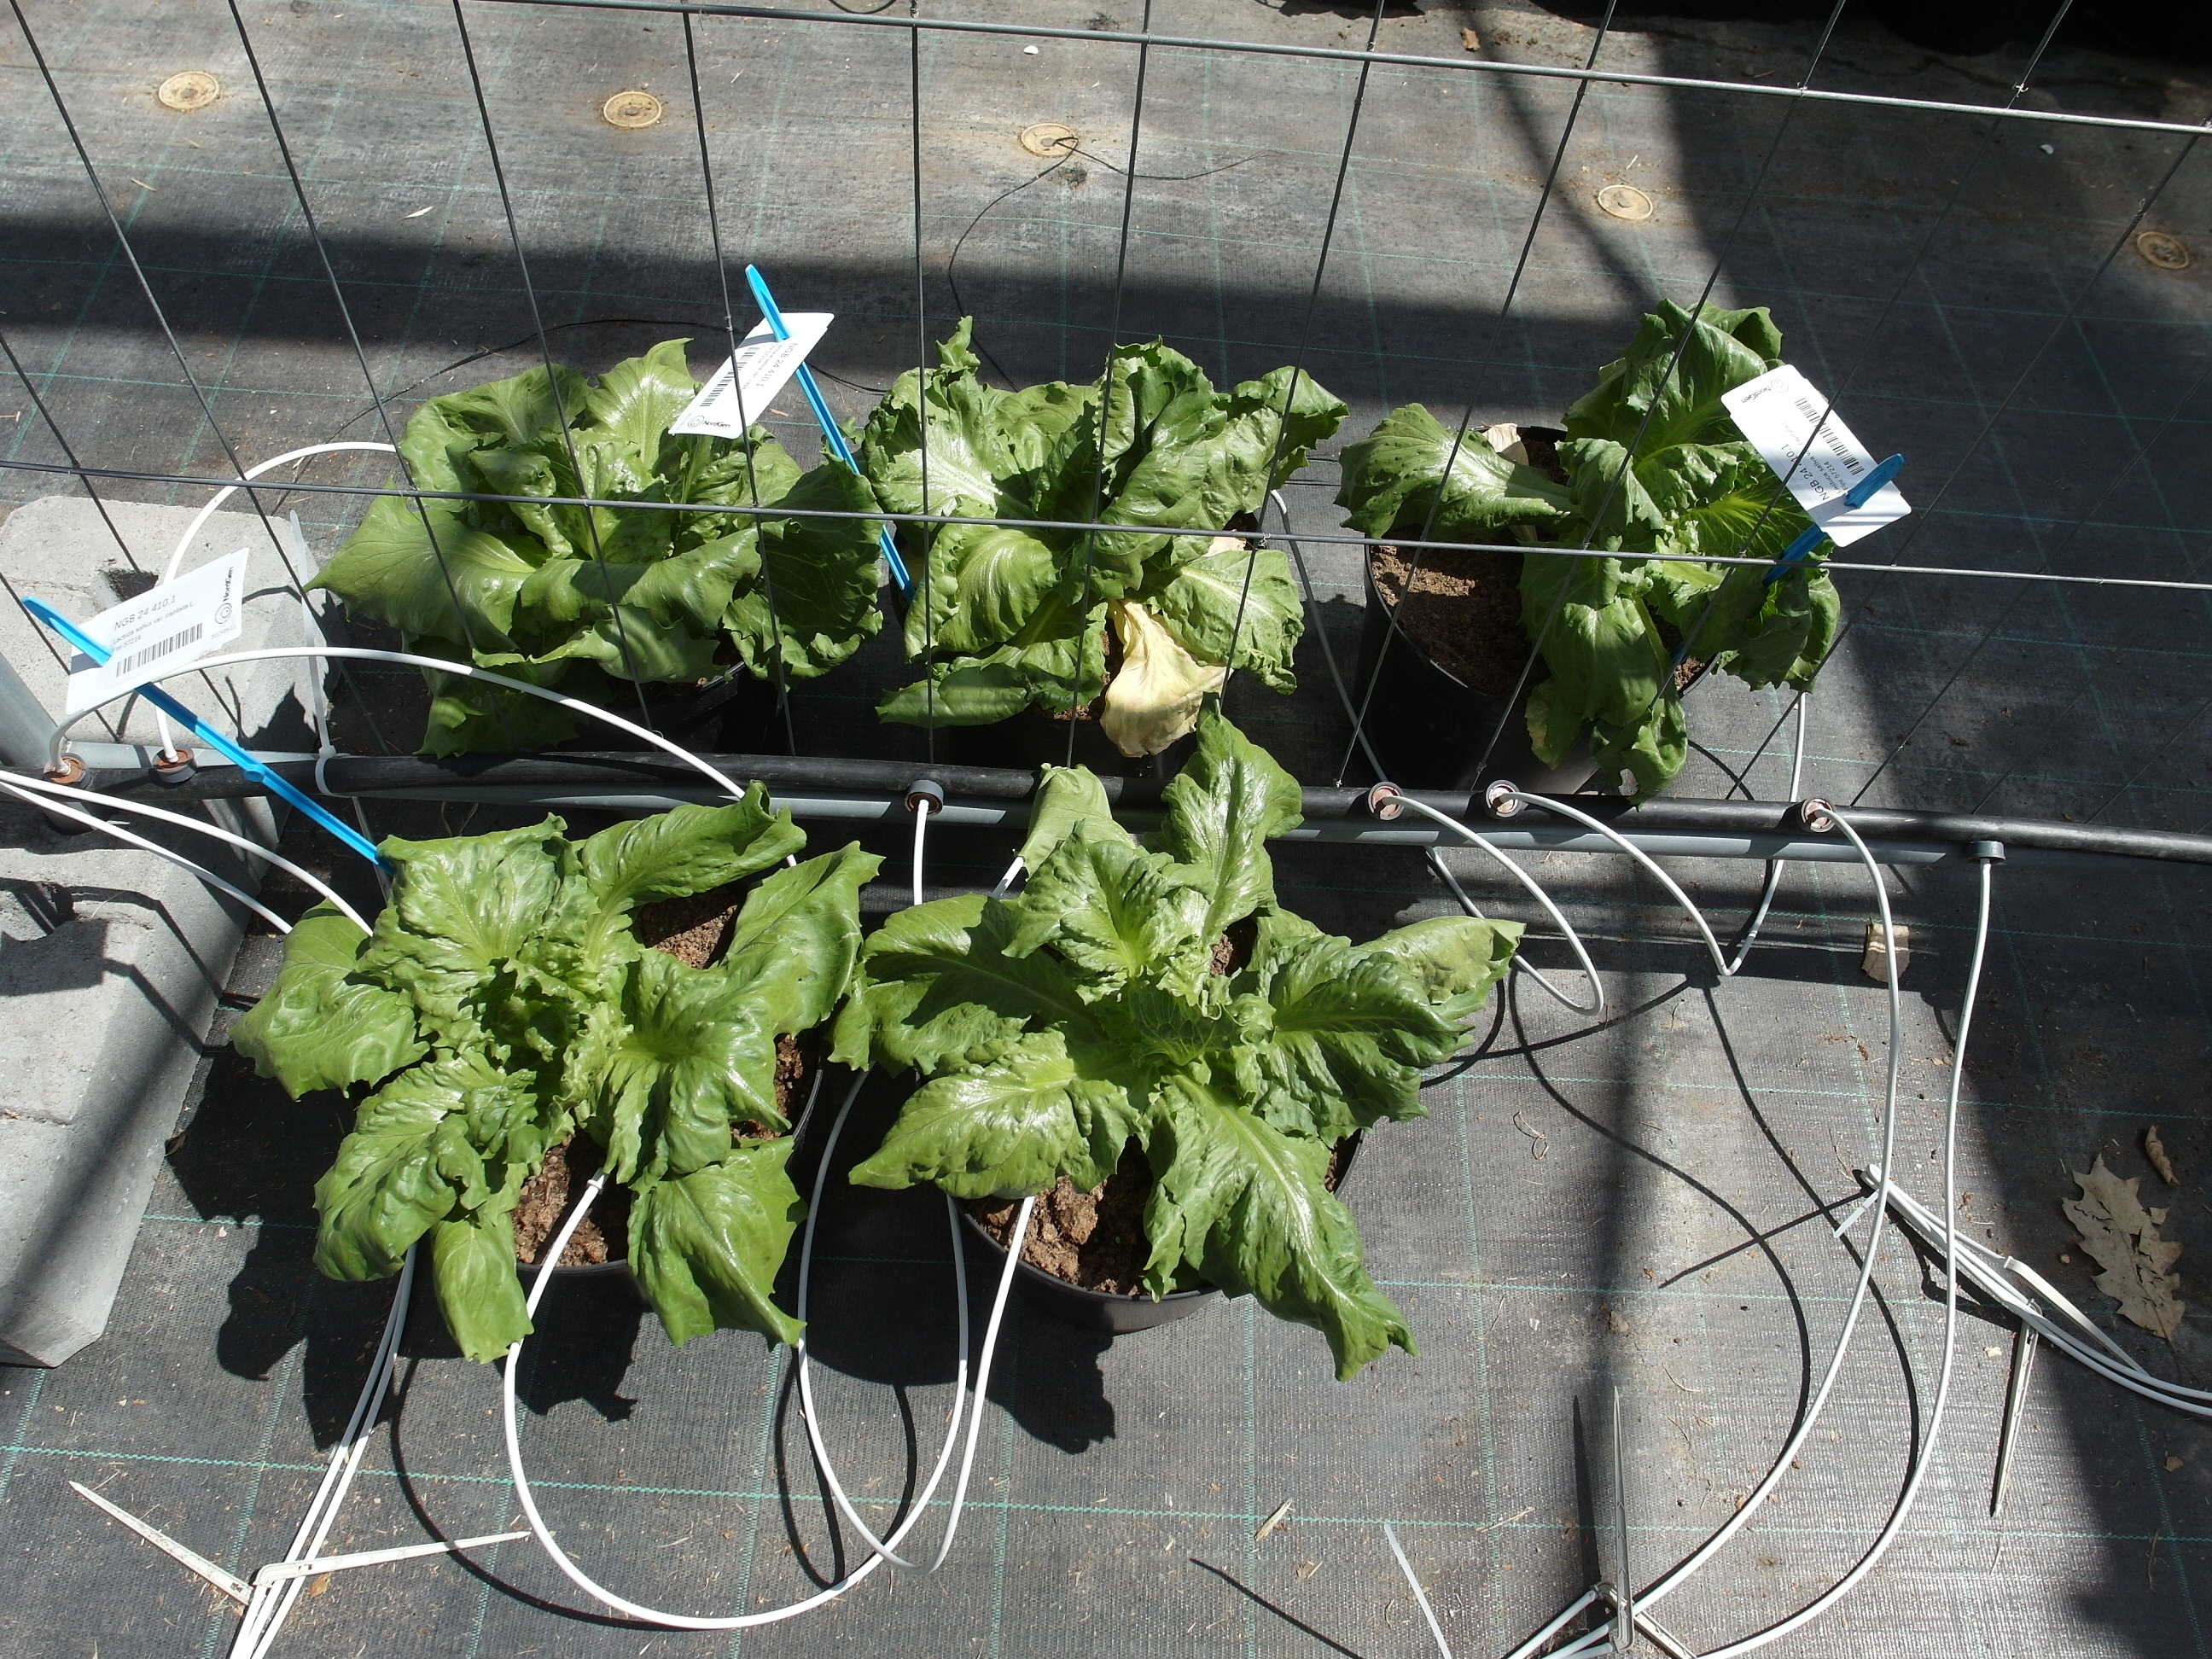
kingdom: Plantae
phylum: Tracheophyta
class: Magnoliopsida
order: Asterales
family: Asteraceae
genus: Lactuca
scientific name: Lactuca sativa
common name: Garden lettuce
